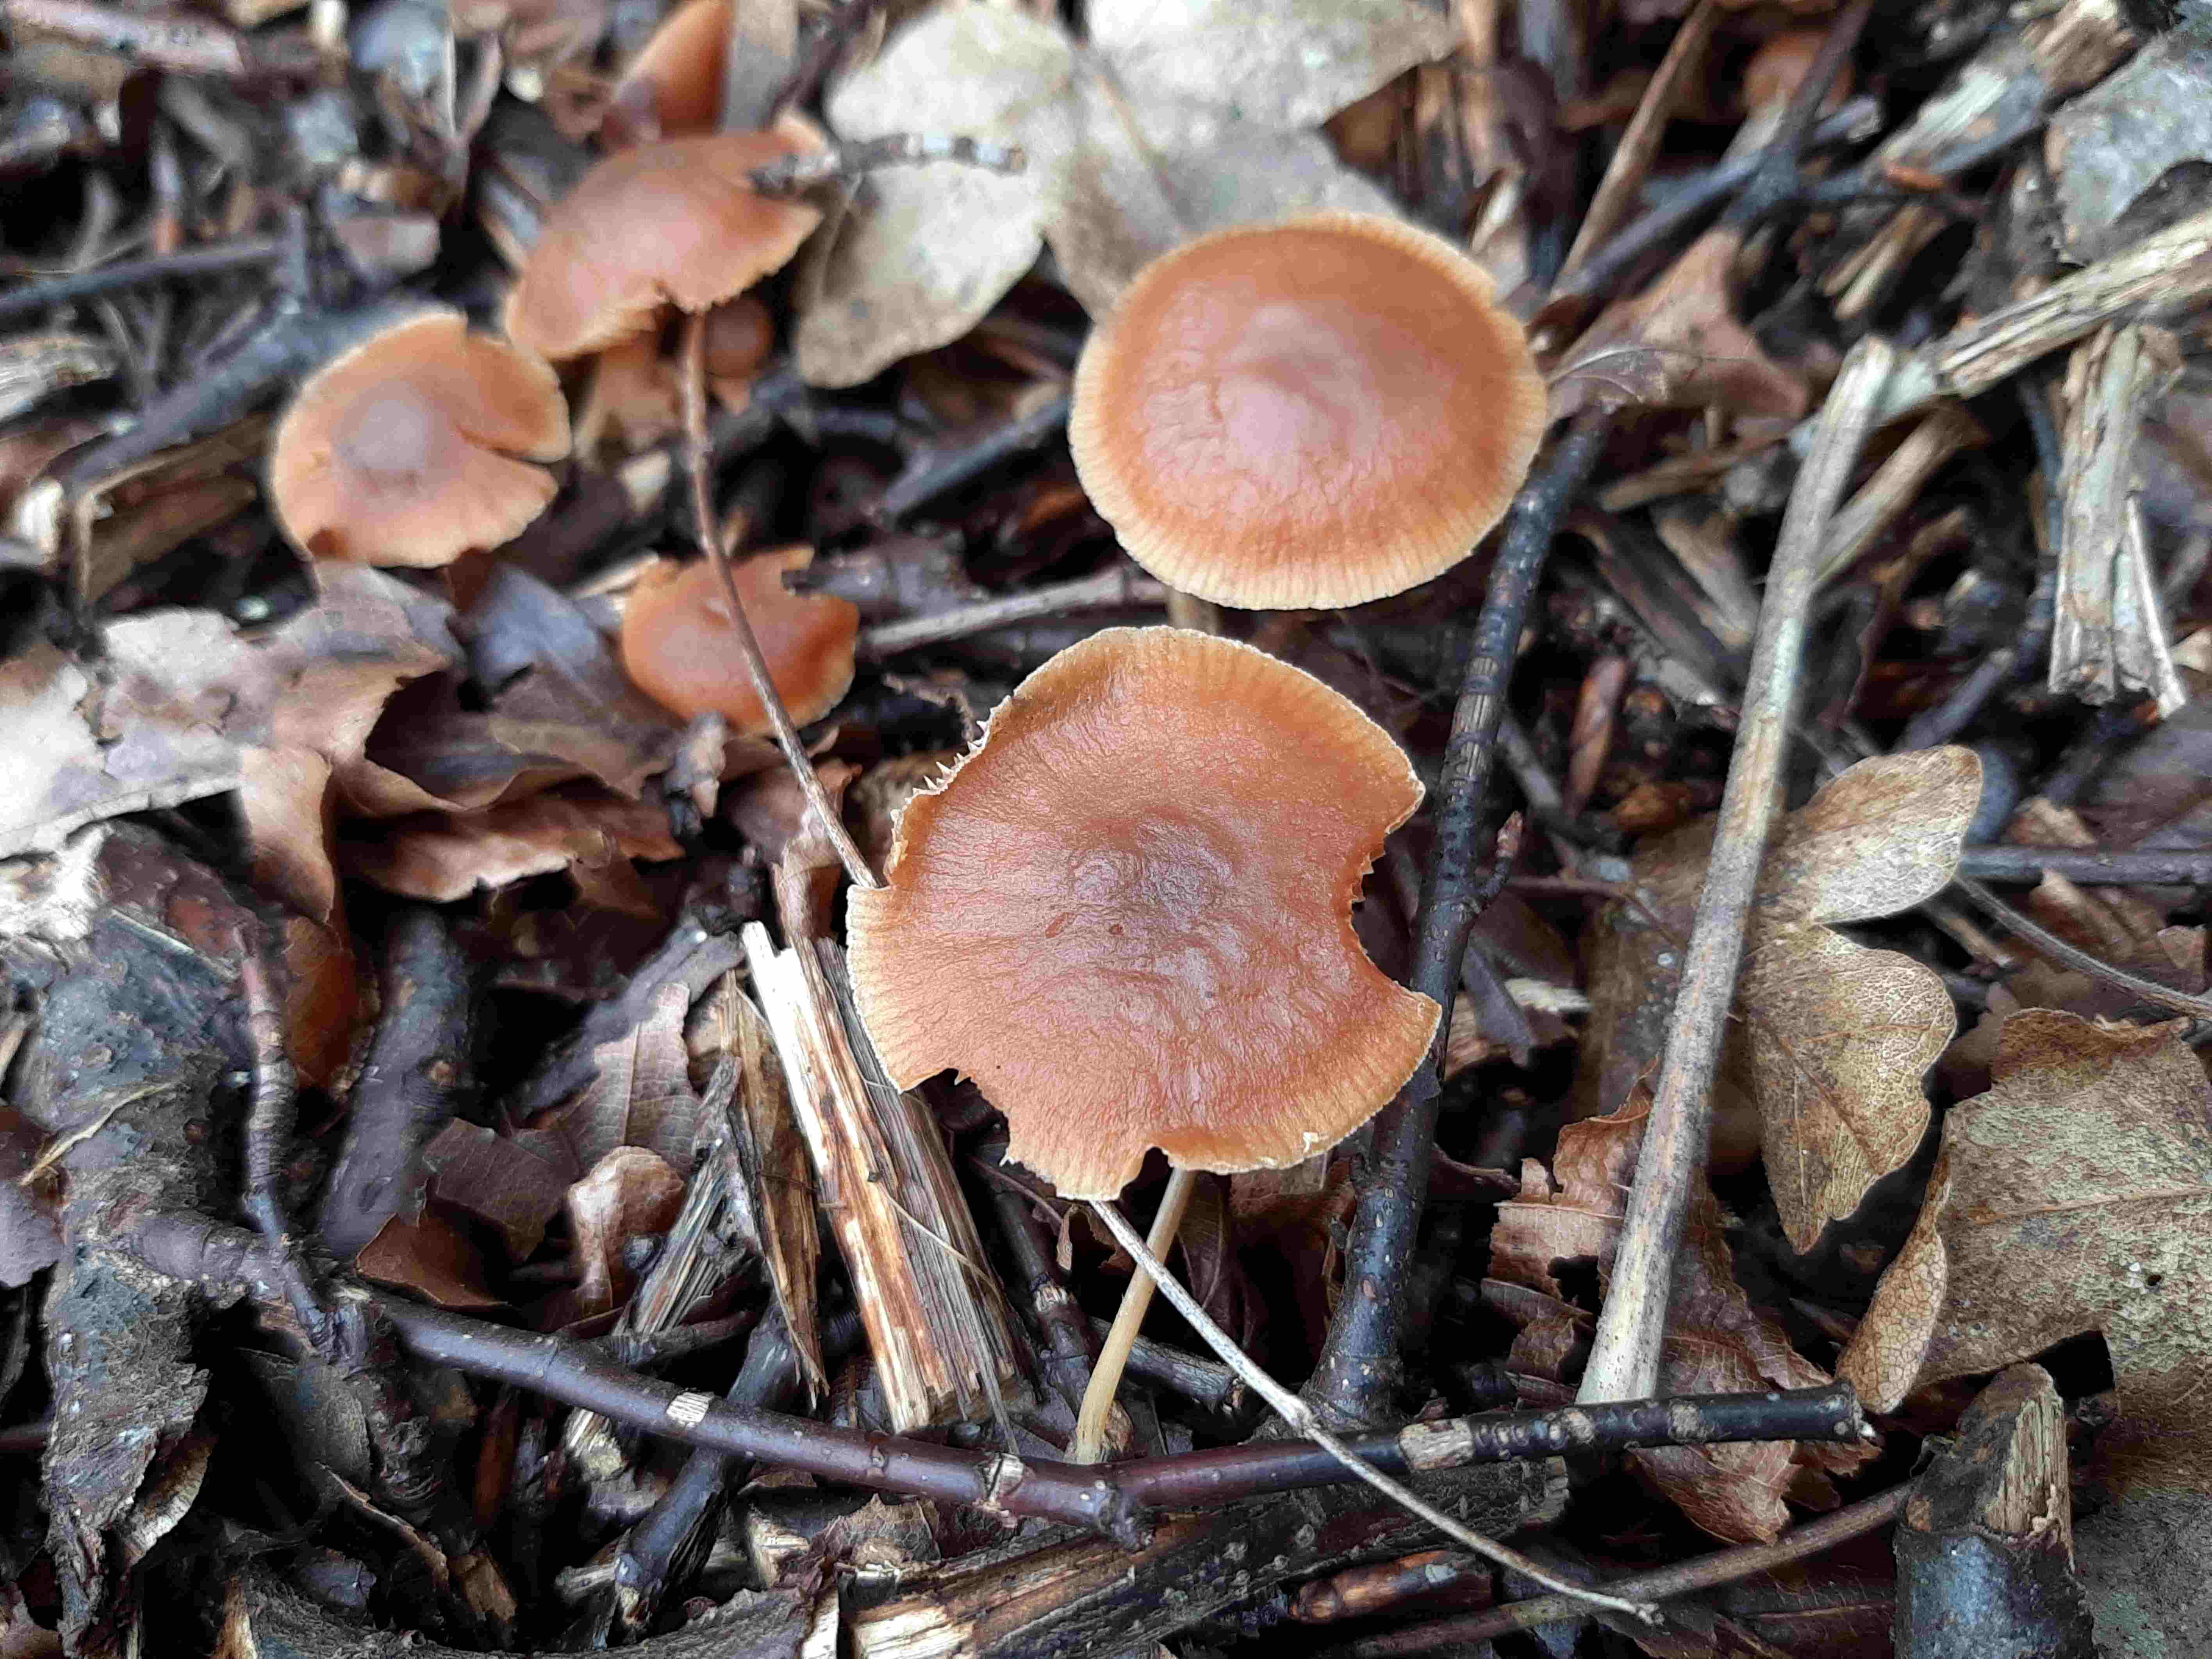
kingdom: Fungi
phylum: Basidiomycota
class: Agaricomycetes
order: Agaricales
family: Tubariaceae
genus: Tubaria
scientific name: Tubaria furfuracea
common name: kliddet fnughat
